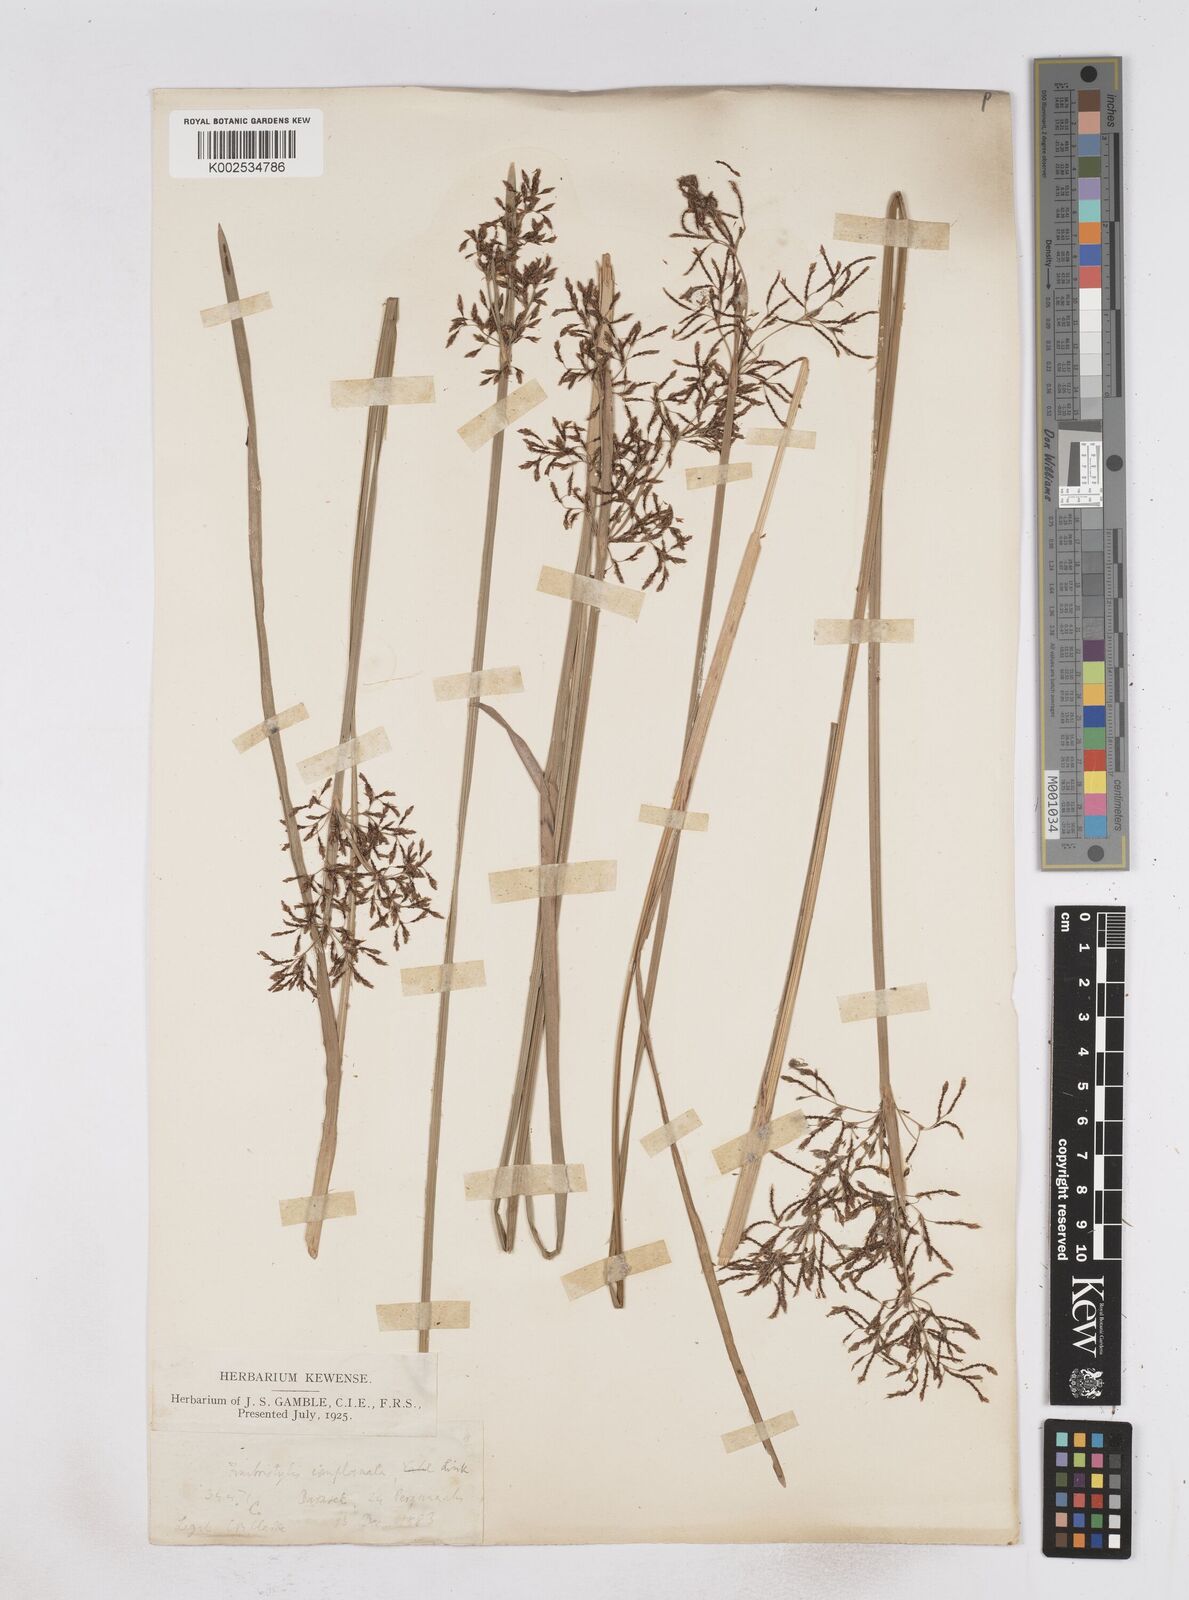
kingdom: Plantae
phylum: Tracheophyta
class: Liliopsida
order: Poales
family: Cyperaceae
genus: Fimbristylis
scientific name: Fimbristylis complanata
